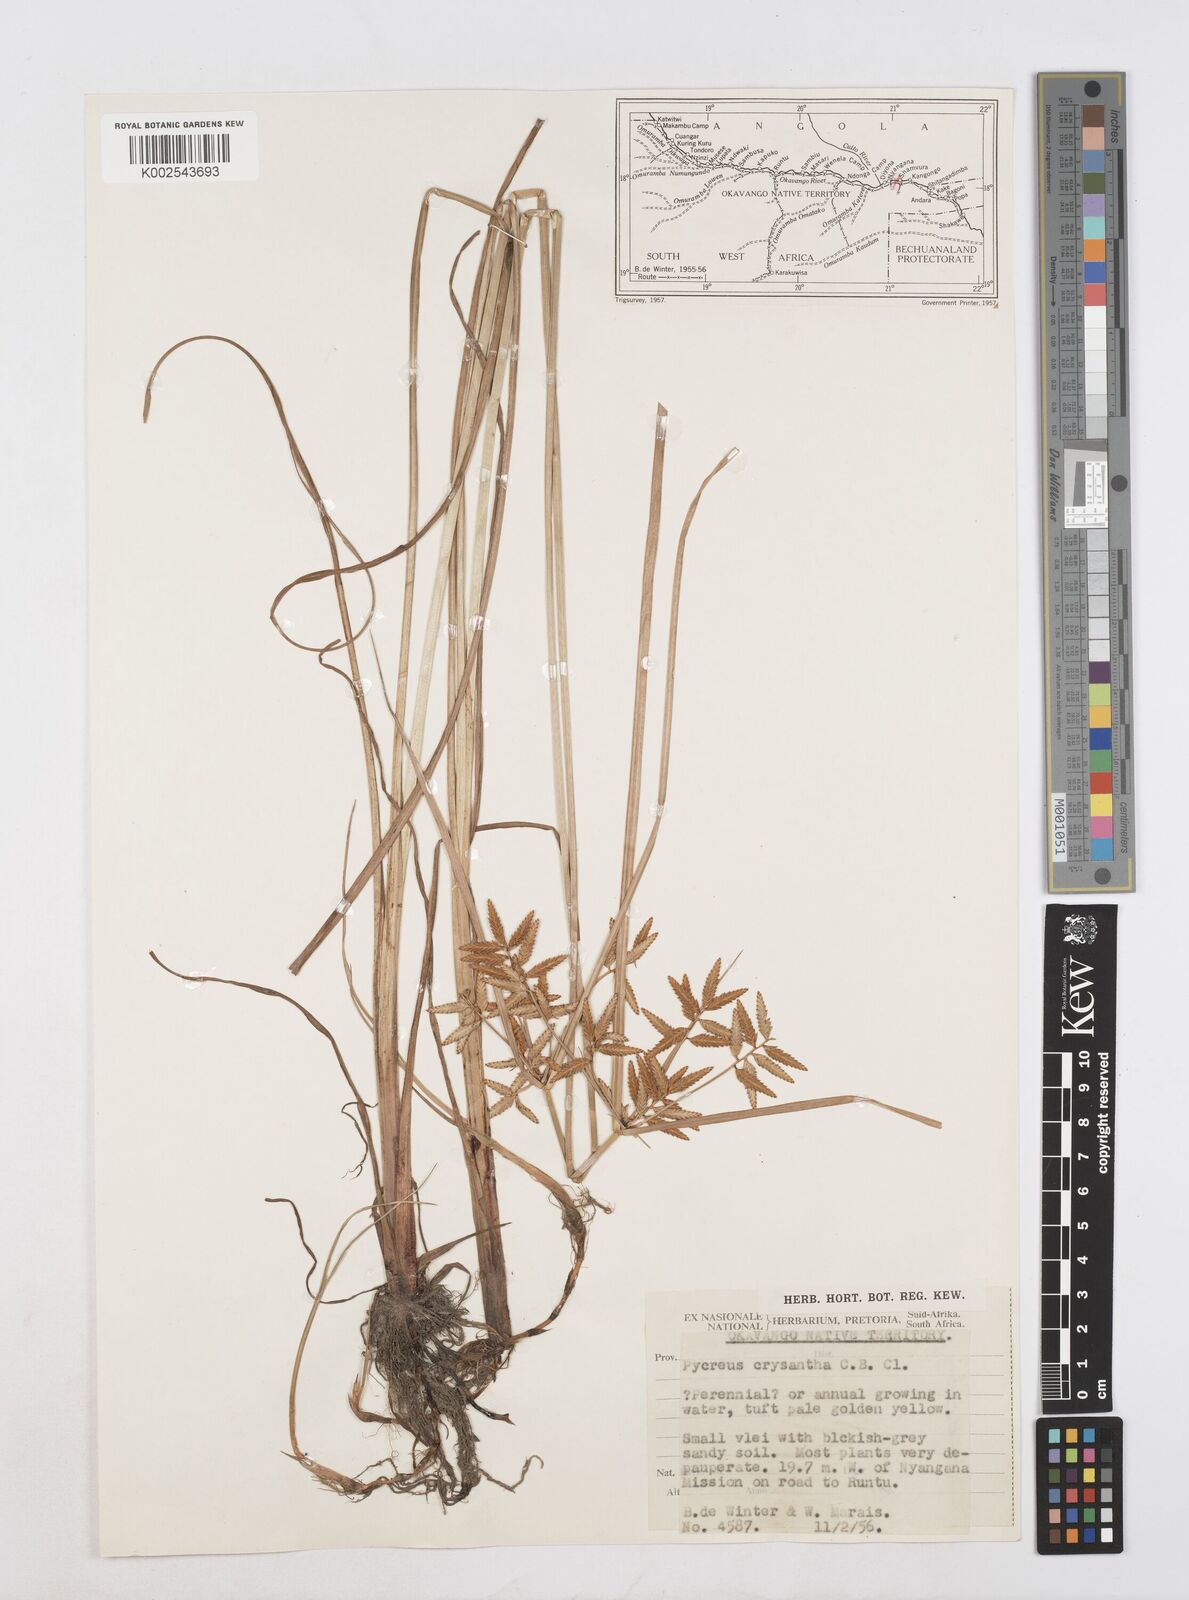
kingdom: Plantae
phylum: Tracheophyta
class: Liliopsida
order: Poales
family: Cyperaceae
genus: Cyperus
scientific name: Cyperus chrysanthus
